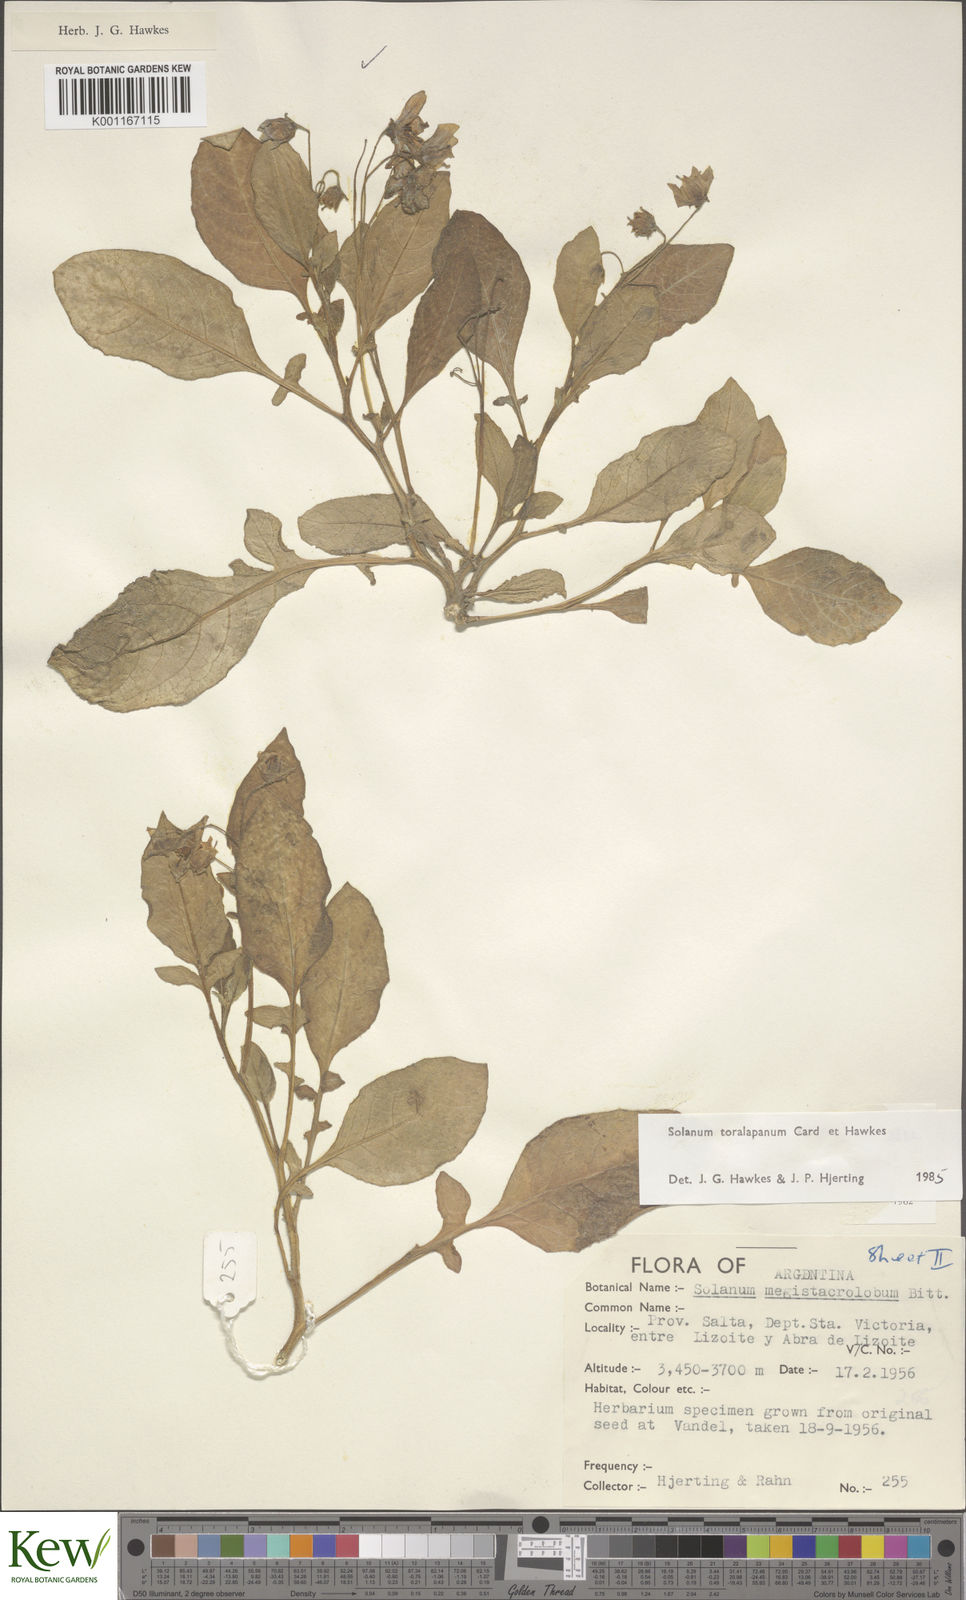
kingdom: Plantae
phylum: Tracheophyta
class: Magnoliopsida
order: Solanales
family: Solanaceae
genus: Solanum
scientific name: Solanum
